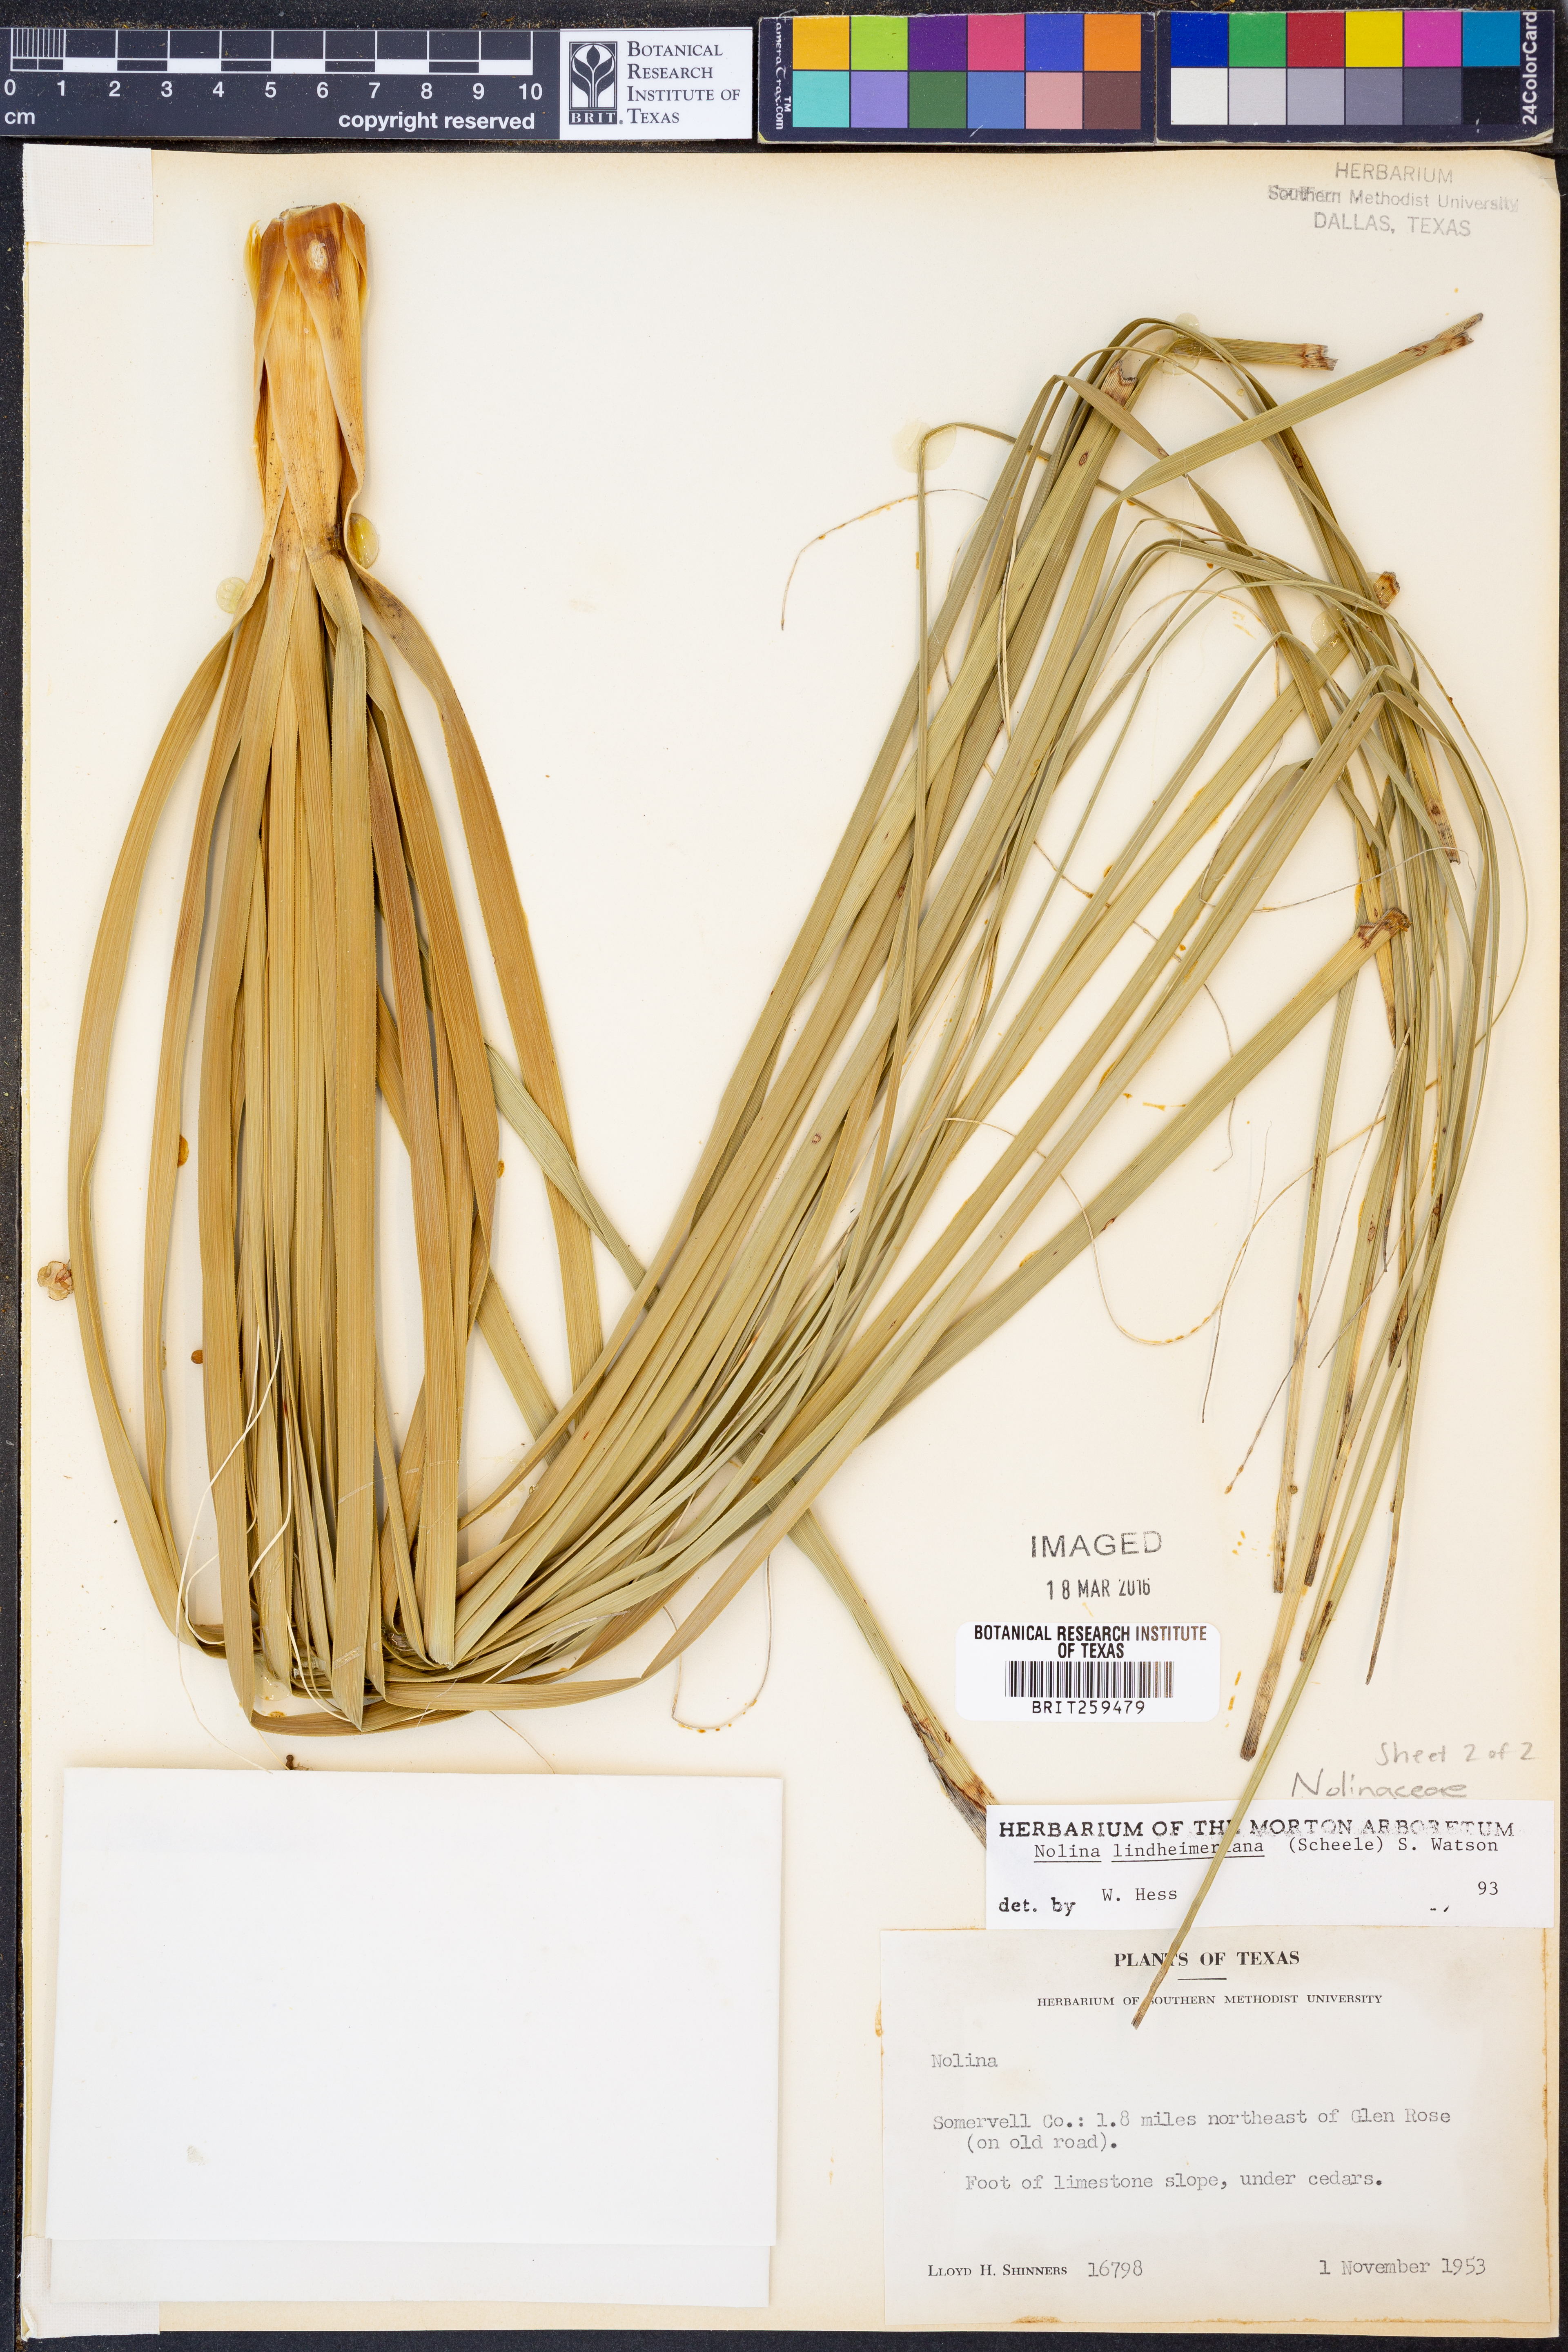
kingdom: Plantae
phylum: Tracheophyta
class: Liliopsida
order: Asparagales
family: Asparagaceae
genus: Nolina
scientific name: Nolina lindheimeriana
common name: Lindheimer's bear-grass
